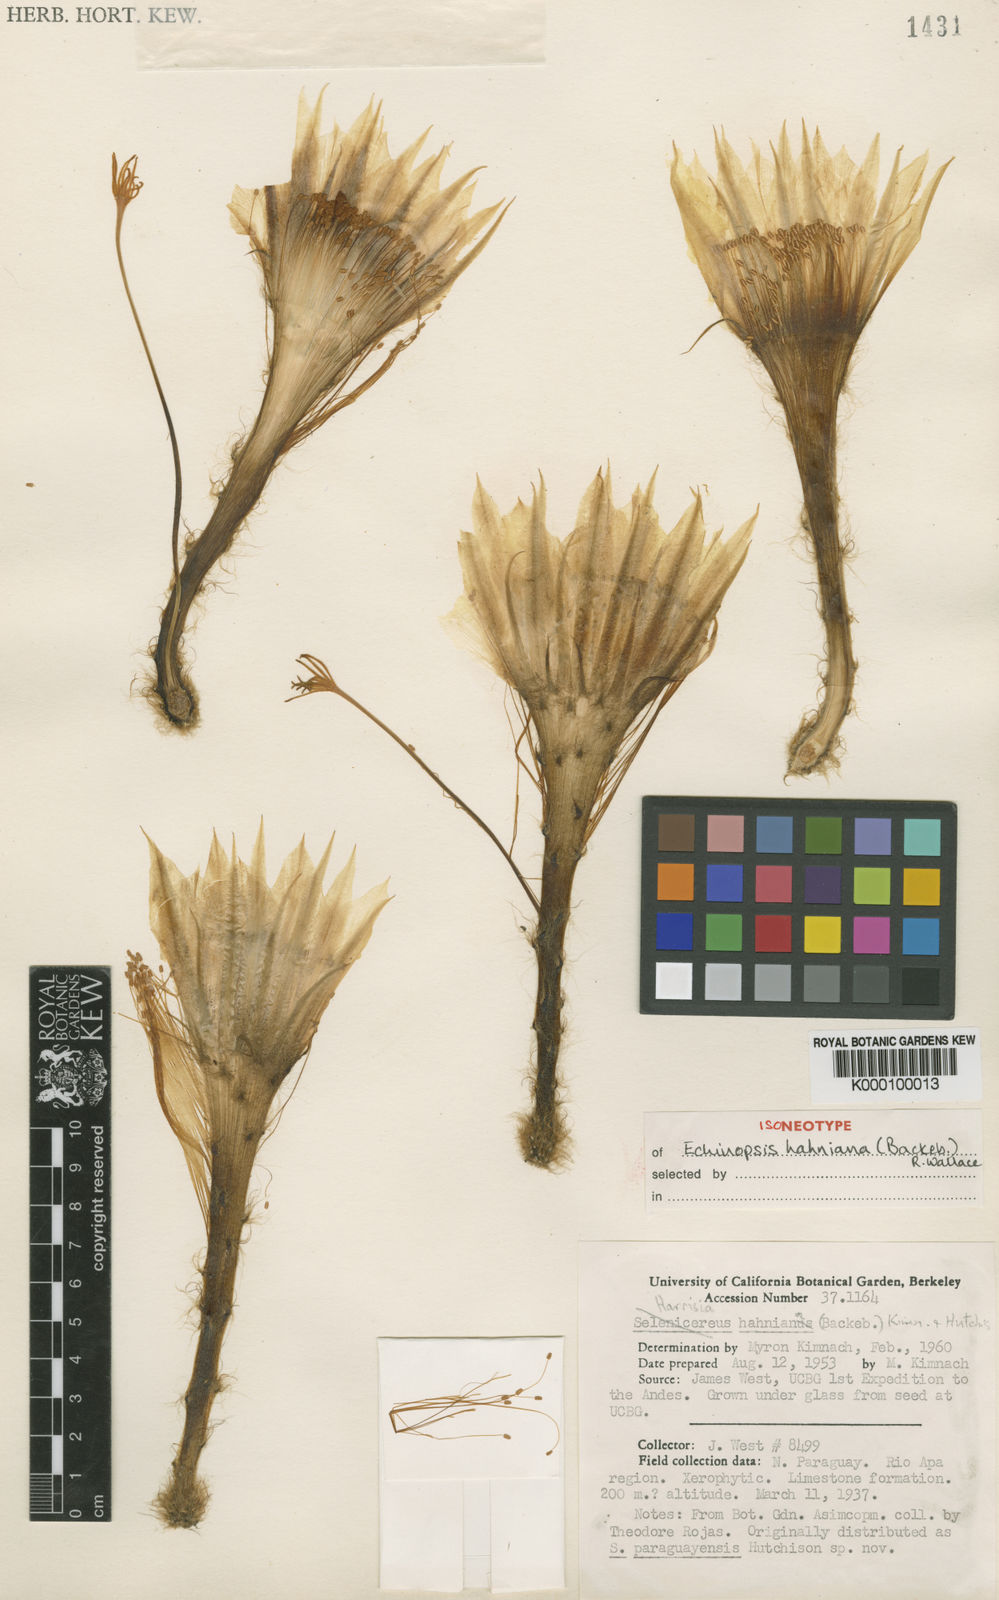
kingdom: Plantae
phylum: Tracheophyta
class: Magnoliopsida
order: Caryophyllales
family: Cactaceae
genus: Soehrensia
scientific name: Soehrensia hahniana
